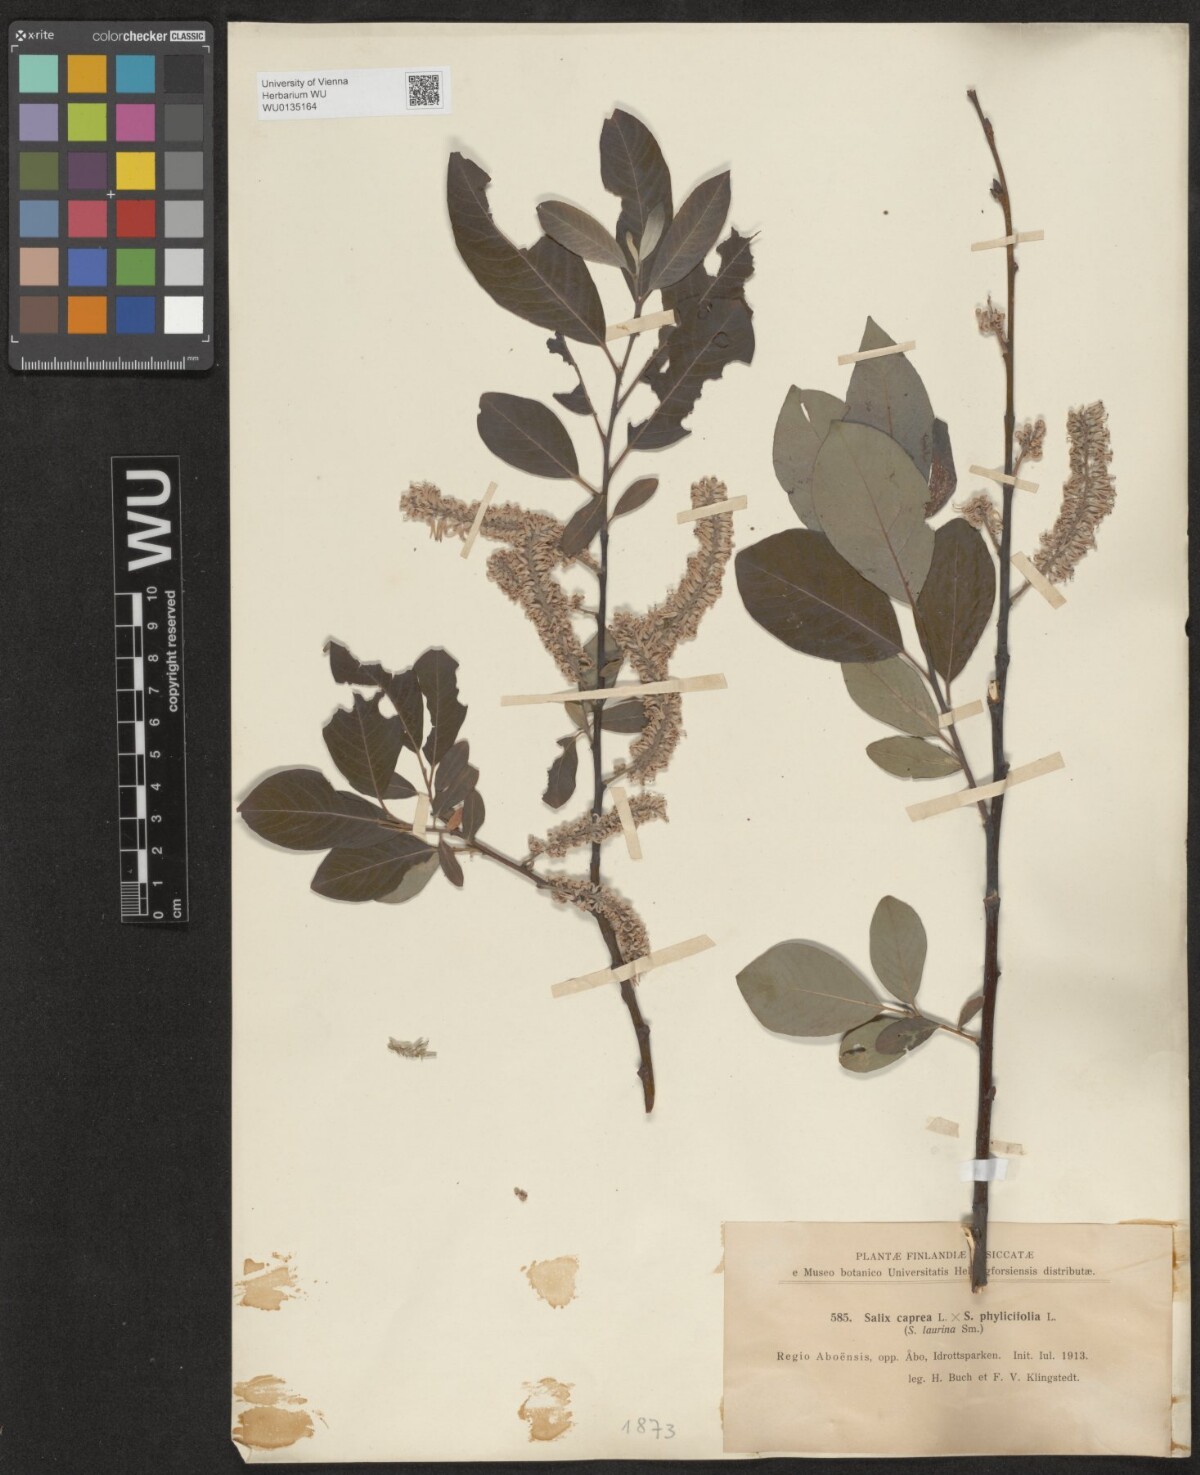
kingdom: Plantae
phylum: Tracheophyta
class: Magnoliopsida
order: Malpighiales
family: Salicaceae
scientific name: Salicaceae
